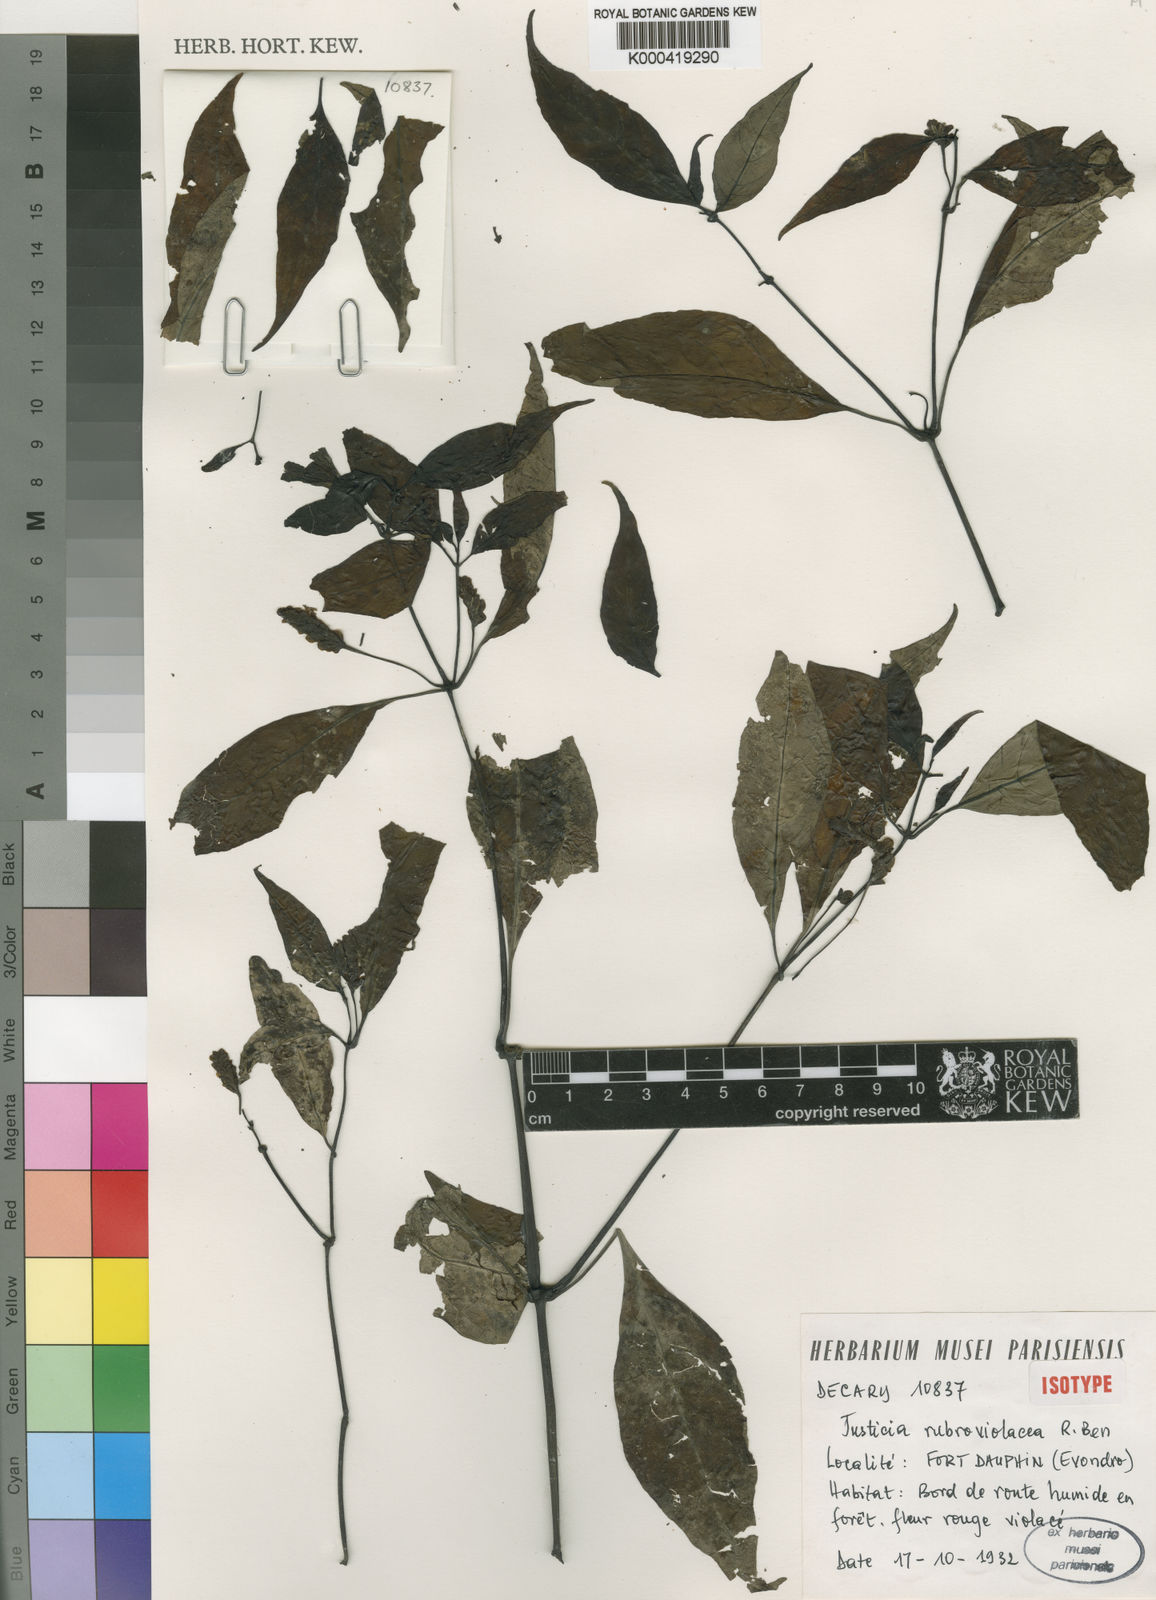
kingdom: Plantae
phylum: Tracheophyta
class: Magnoliopsida
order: Lamiales
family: Acanthaceae
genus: Justicia
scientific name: Justicia rubroviolacea
